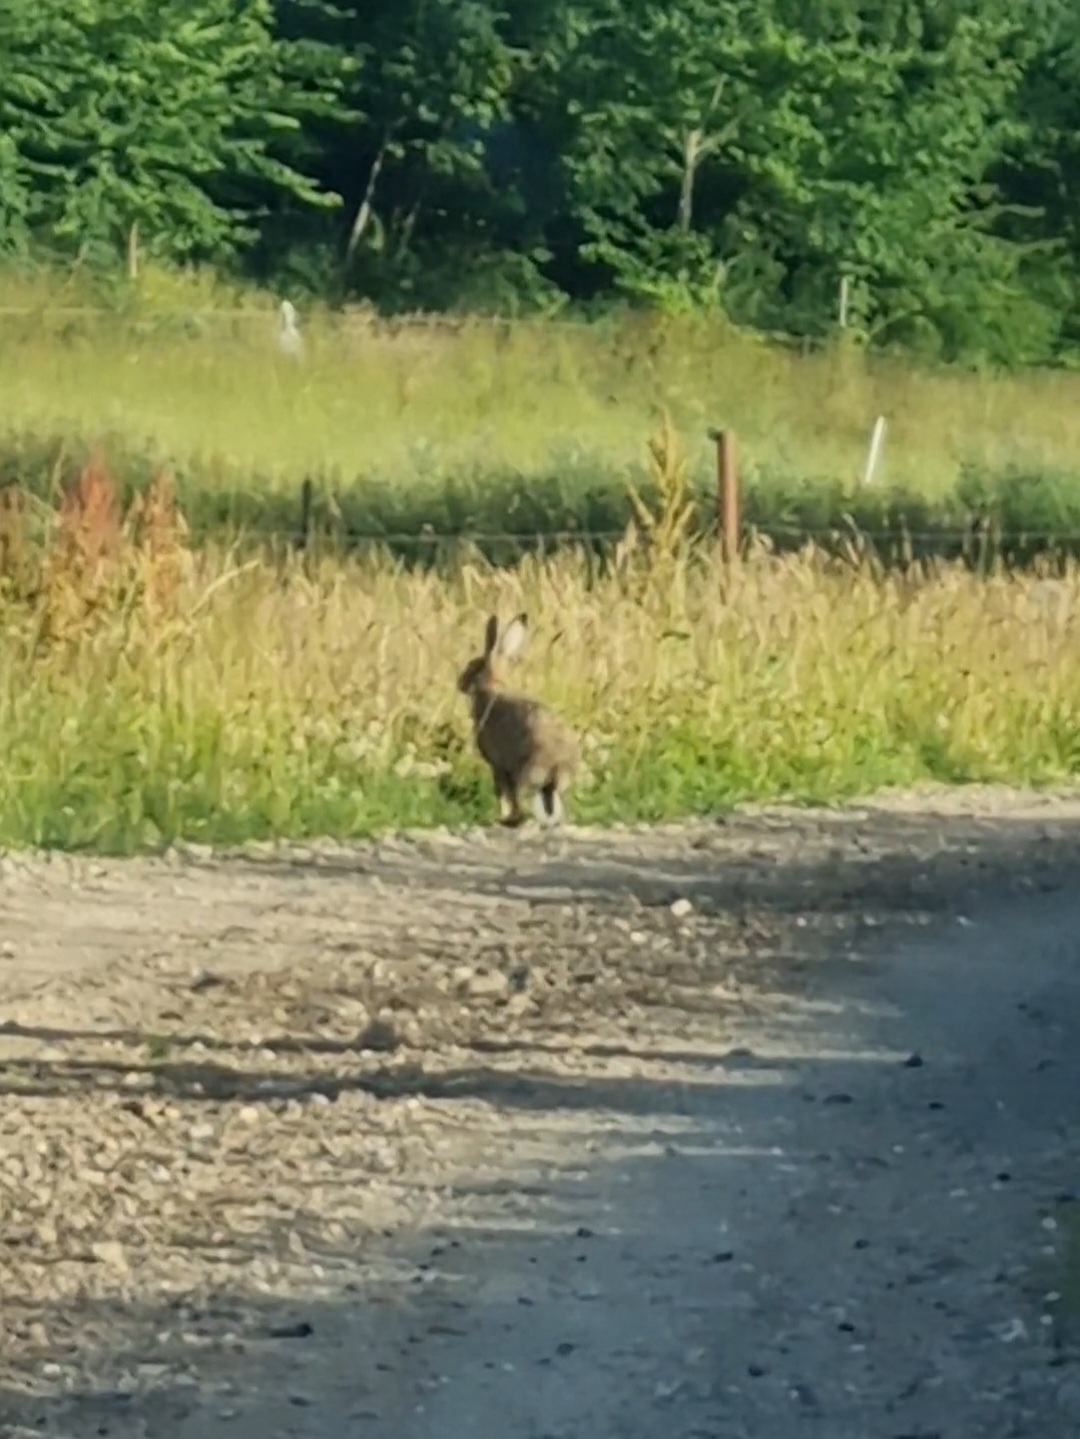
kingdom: Animalia
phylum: Chordata
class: Mammalia
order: Lagomorpha
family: Leporidae
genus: Lepus
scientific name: Lepus europaeus
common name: Hare
